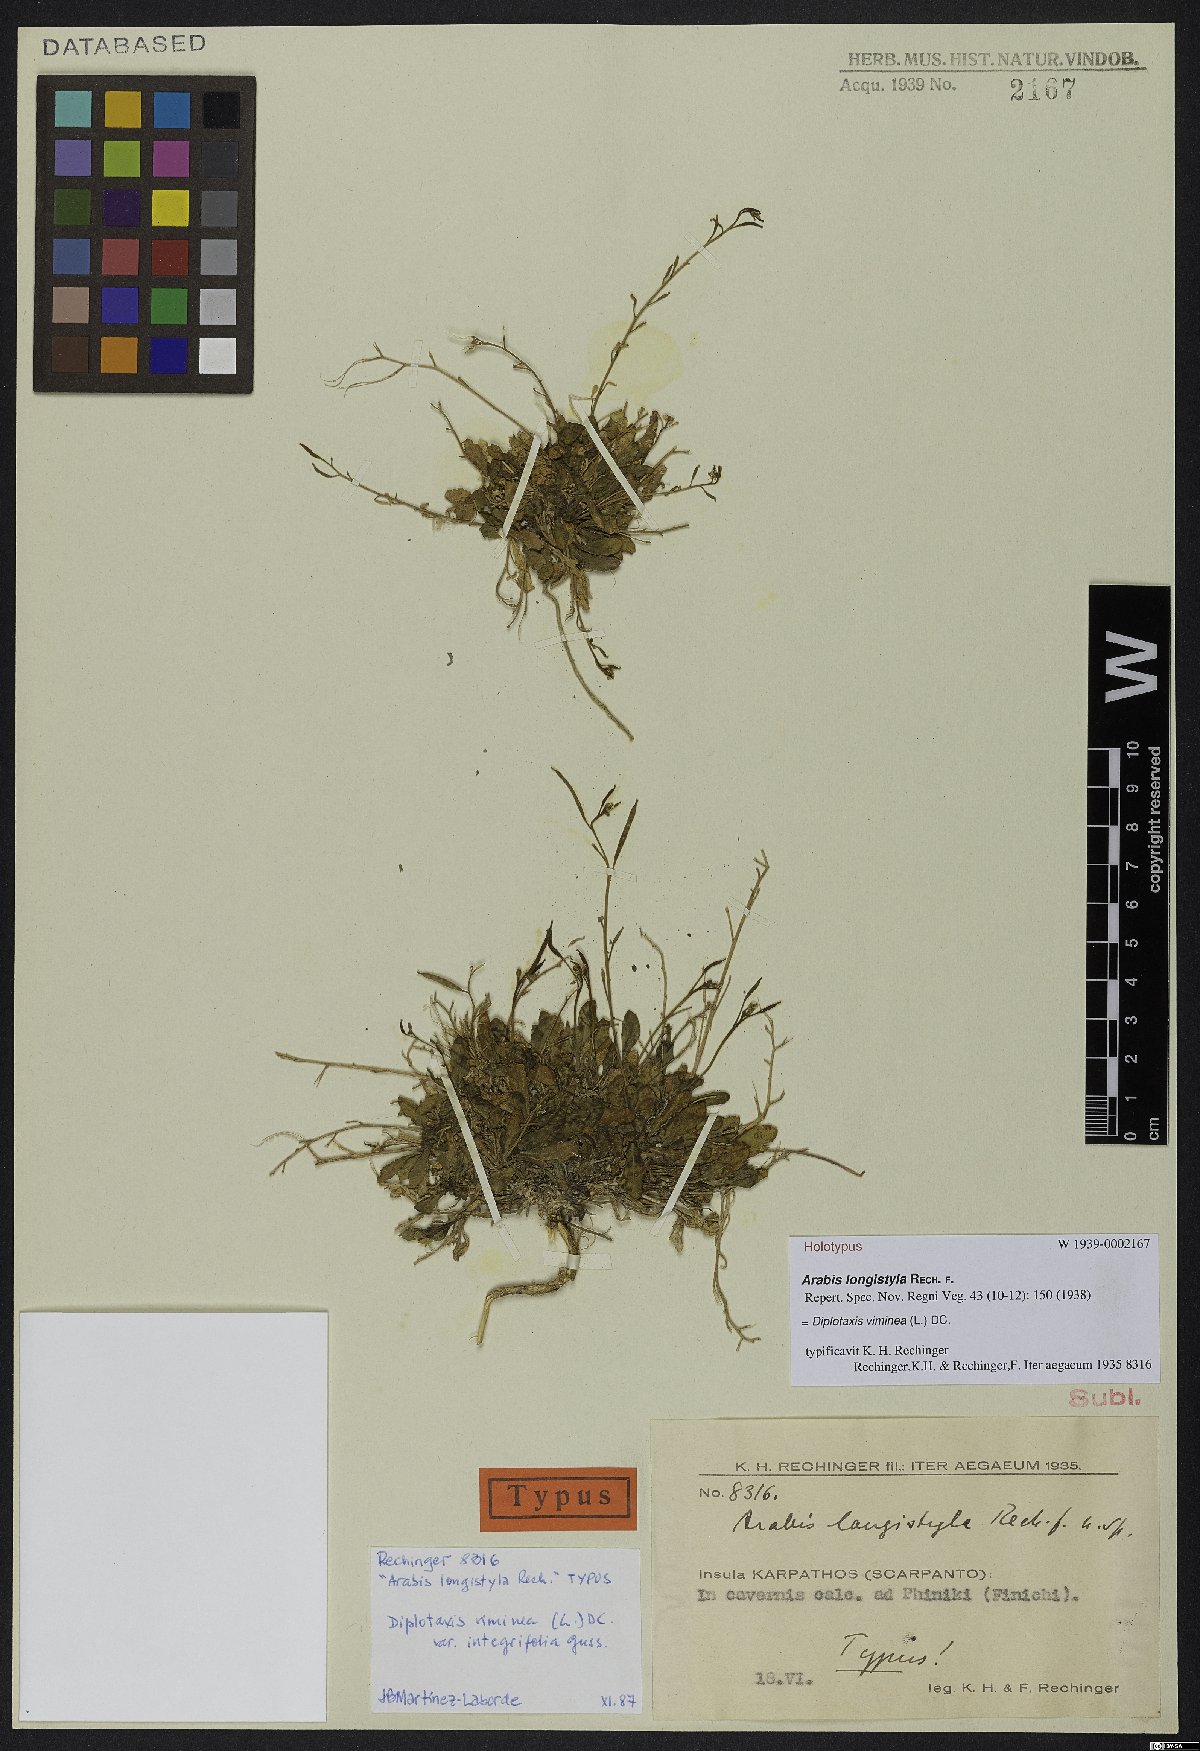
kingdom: Plantae
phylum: Tracheophyta
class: Magnoliopsida
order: Brassicales
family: Brassicaceae
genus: Diplotaxis
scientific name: Diplotaxis viminea
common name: Vineyard wall rocket
